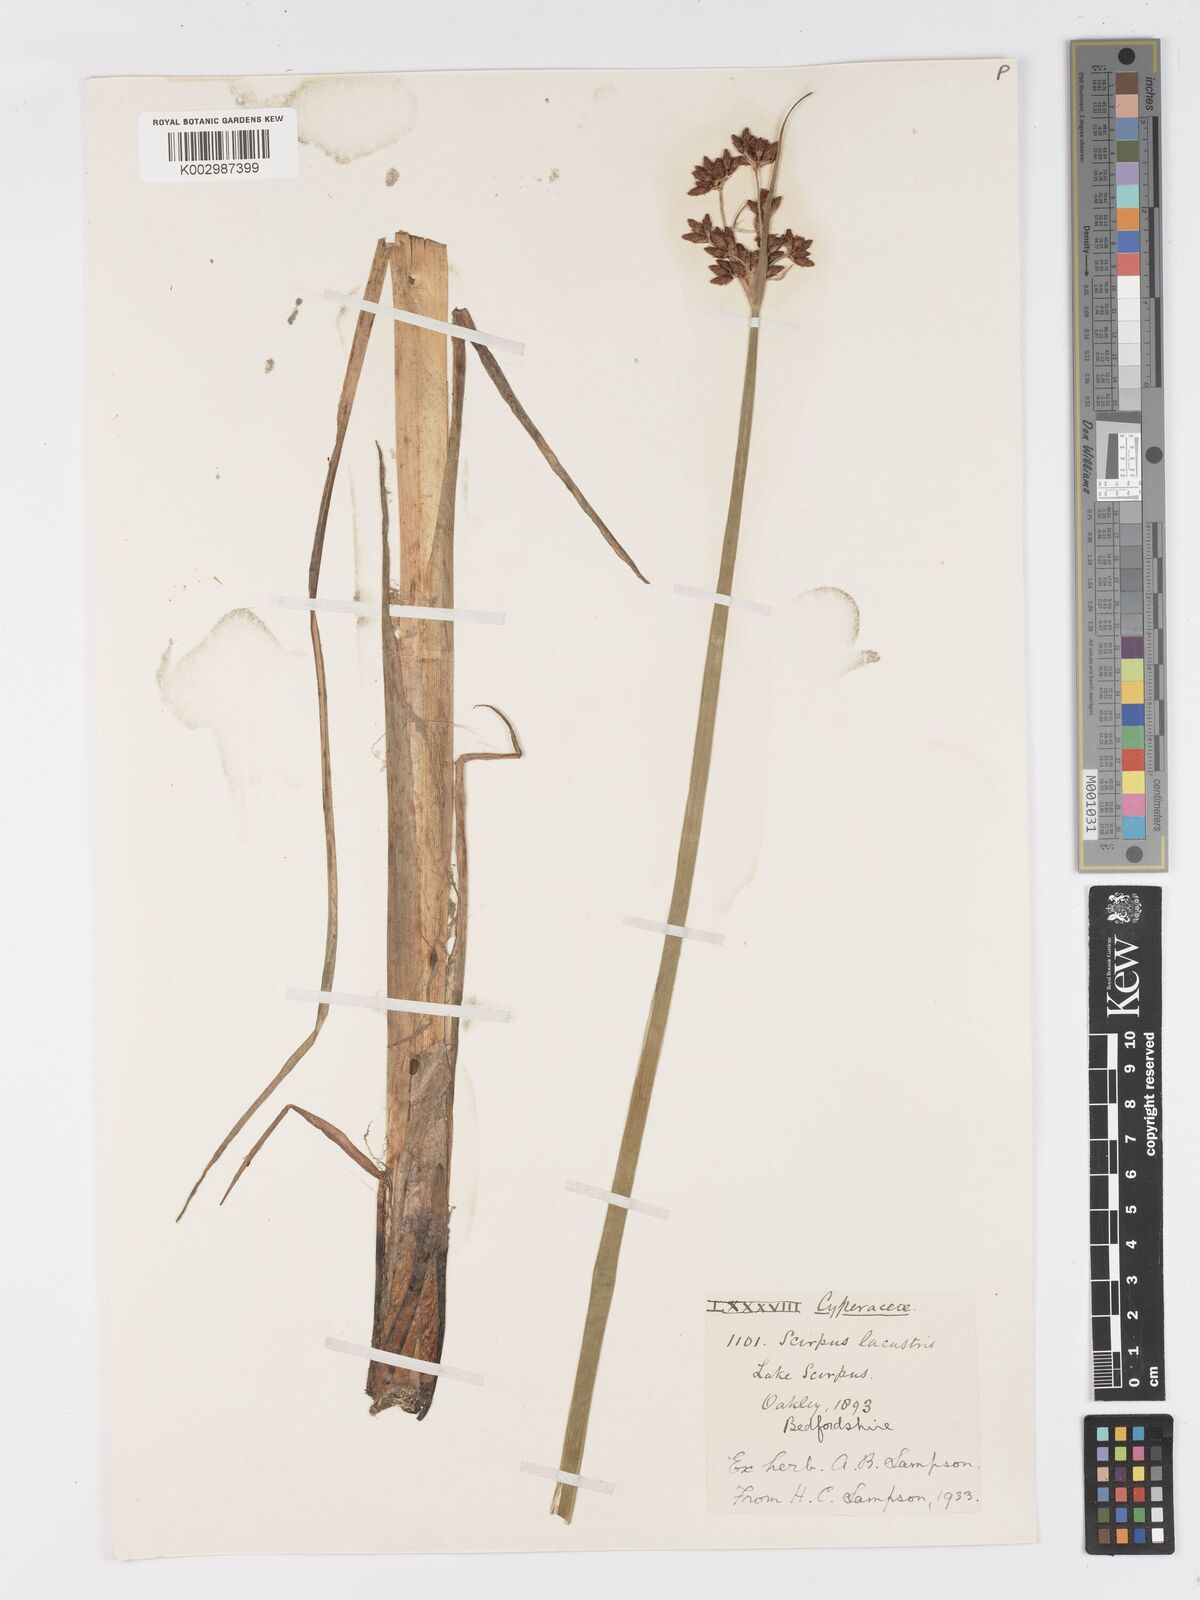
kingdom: Plantae
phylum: Tracheophyta
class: Liliopsida
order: Poales
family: Cyperaceae
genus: Schoenoplectus
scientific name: Schoenoplectus lacustris
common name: Common club-rush
